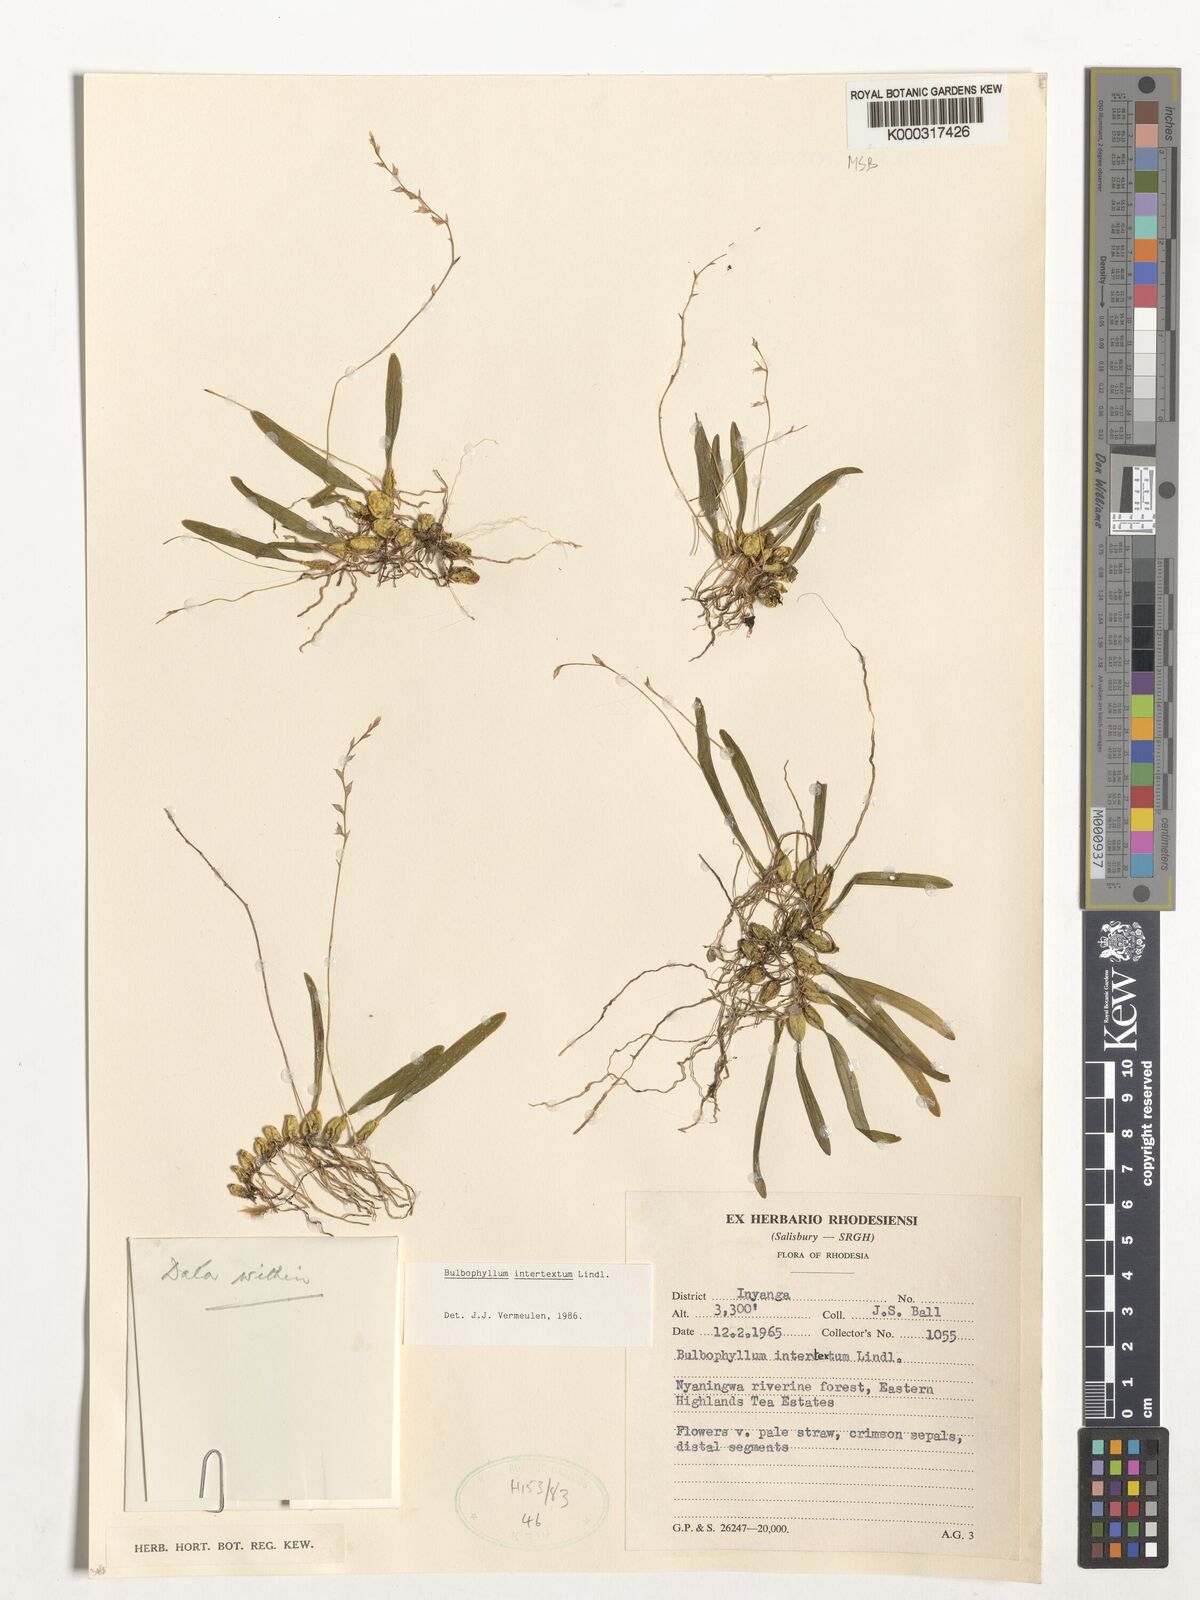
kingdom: Plantae
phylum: Tracheophyta
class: Liliopsida
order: Asparagales
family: Orchidaceae
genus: Bulbophyllum
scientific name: Bulbophyllum intertextum
